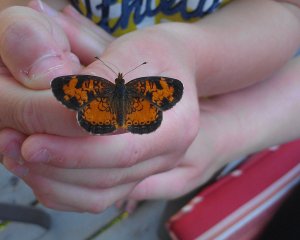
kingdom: Animalia
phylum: Arthropoda
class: Insecta
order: Lepidoptera
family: Nymphalidae
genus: Phyciodes
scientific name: Phyciodes tharos
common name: Northern Crescent
